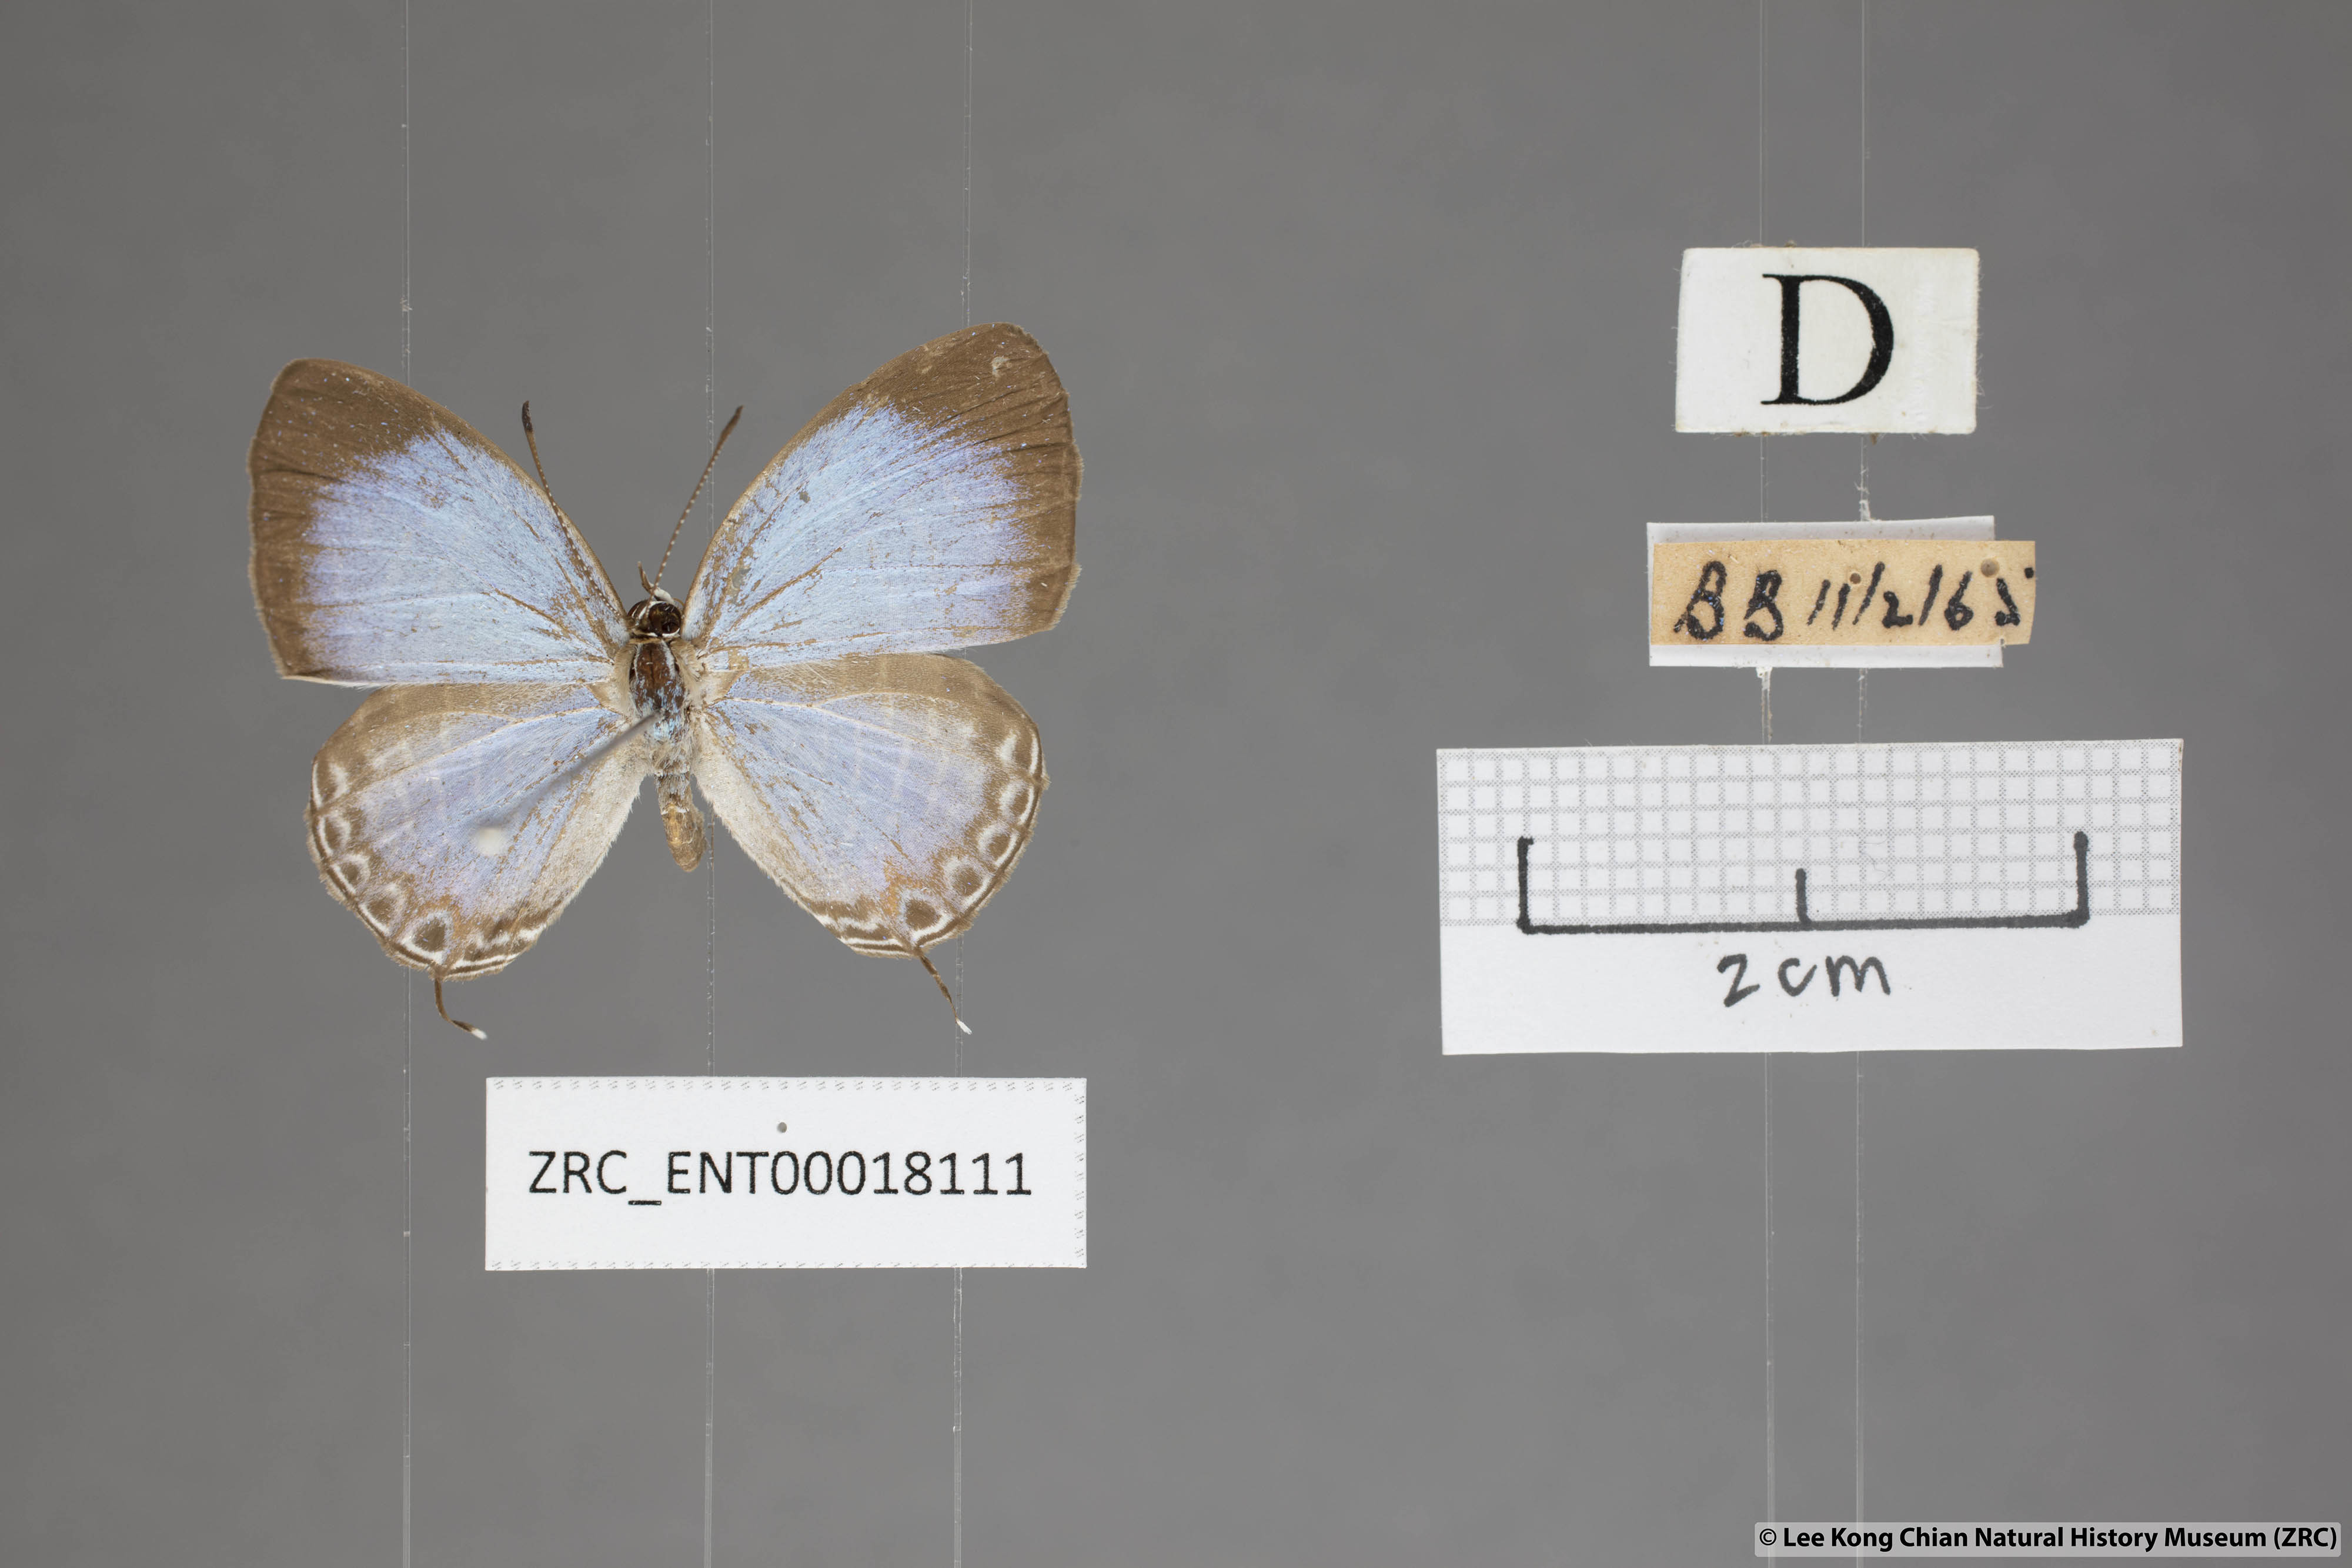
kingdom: Animalia
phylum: Arthropoda
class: Insecta
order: Lepidoptera
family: Lycaenidae
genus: Jamides
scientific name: Jamides
